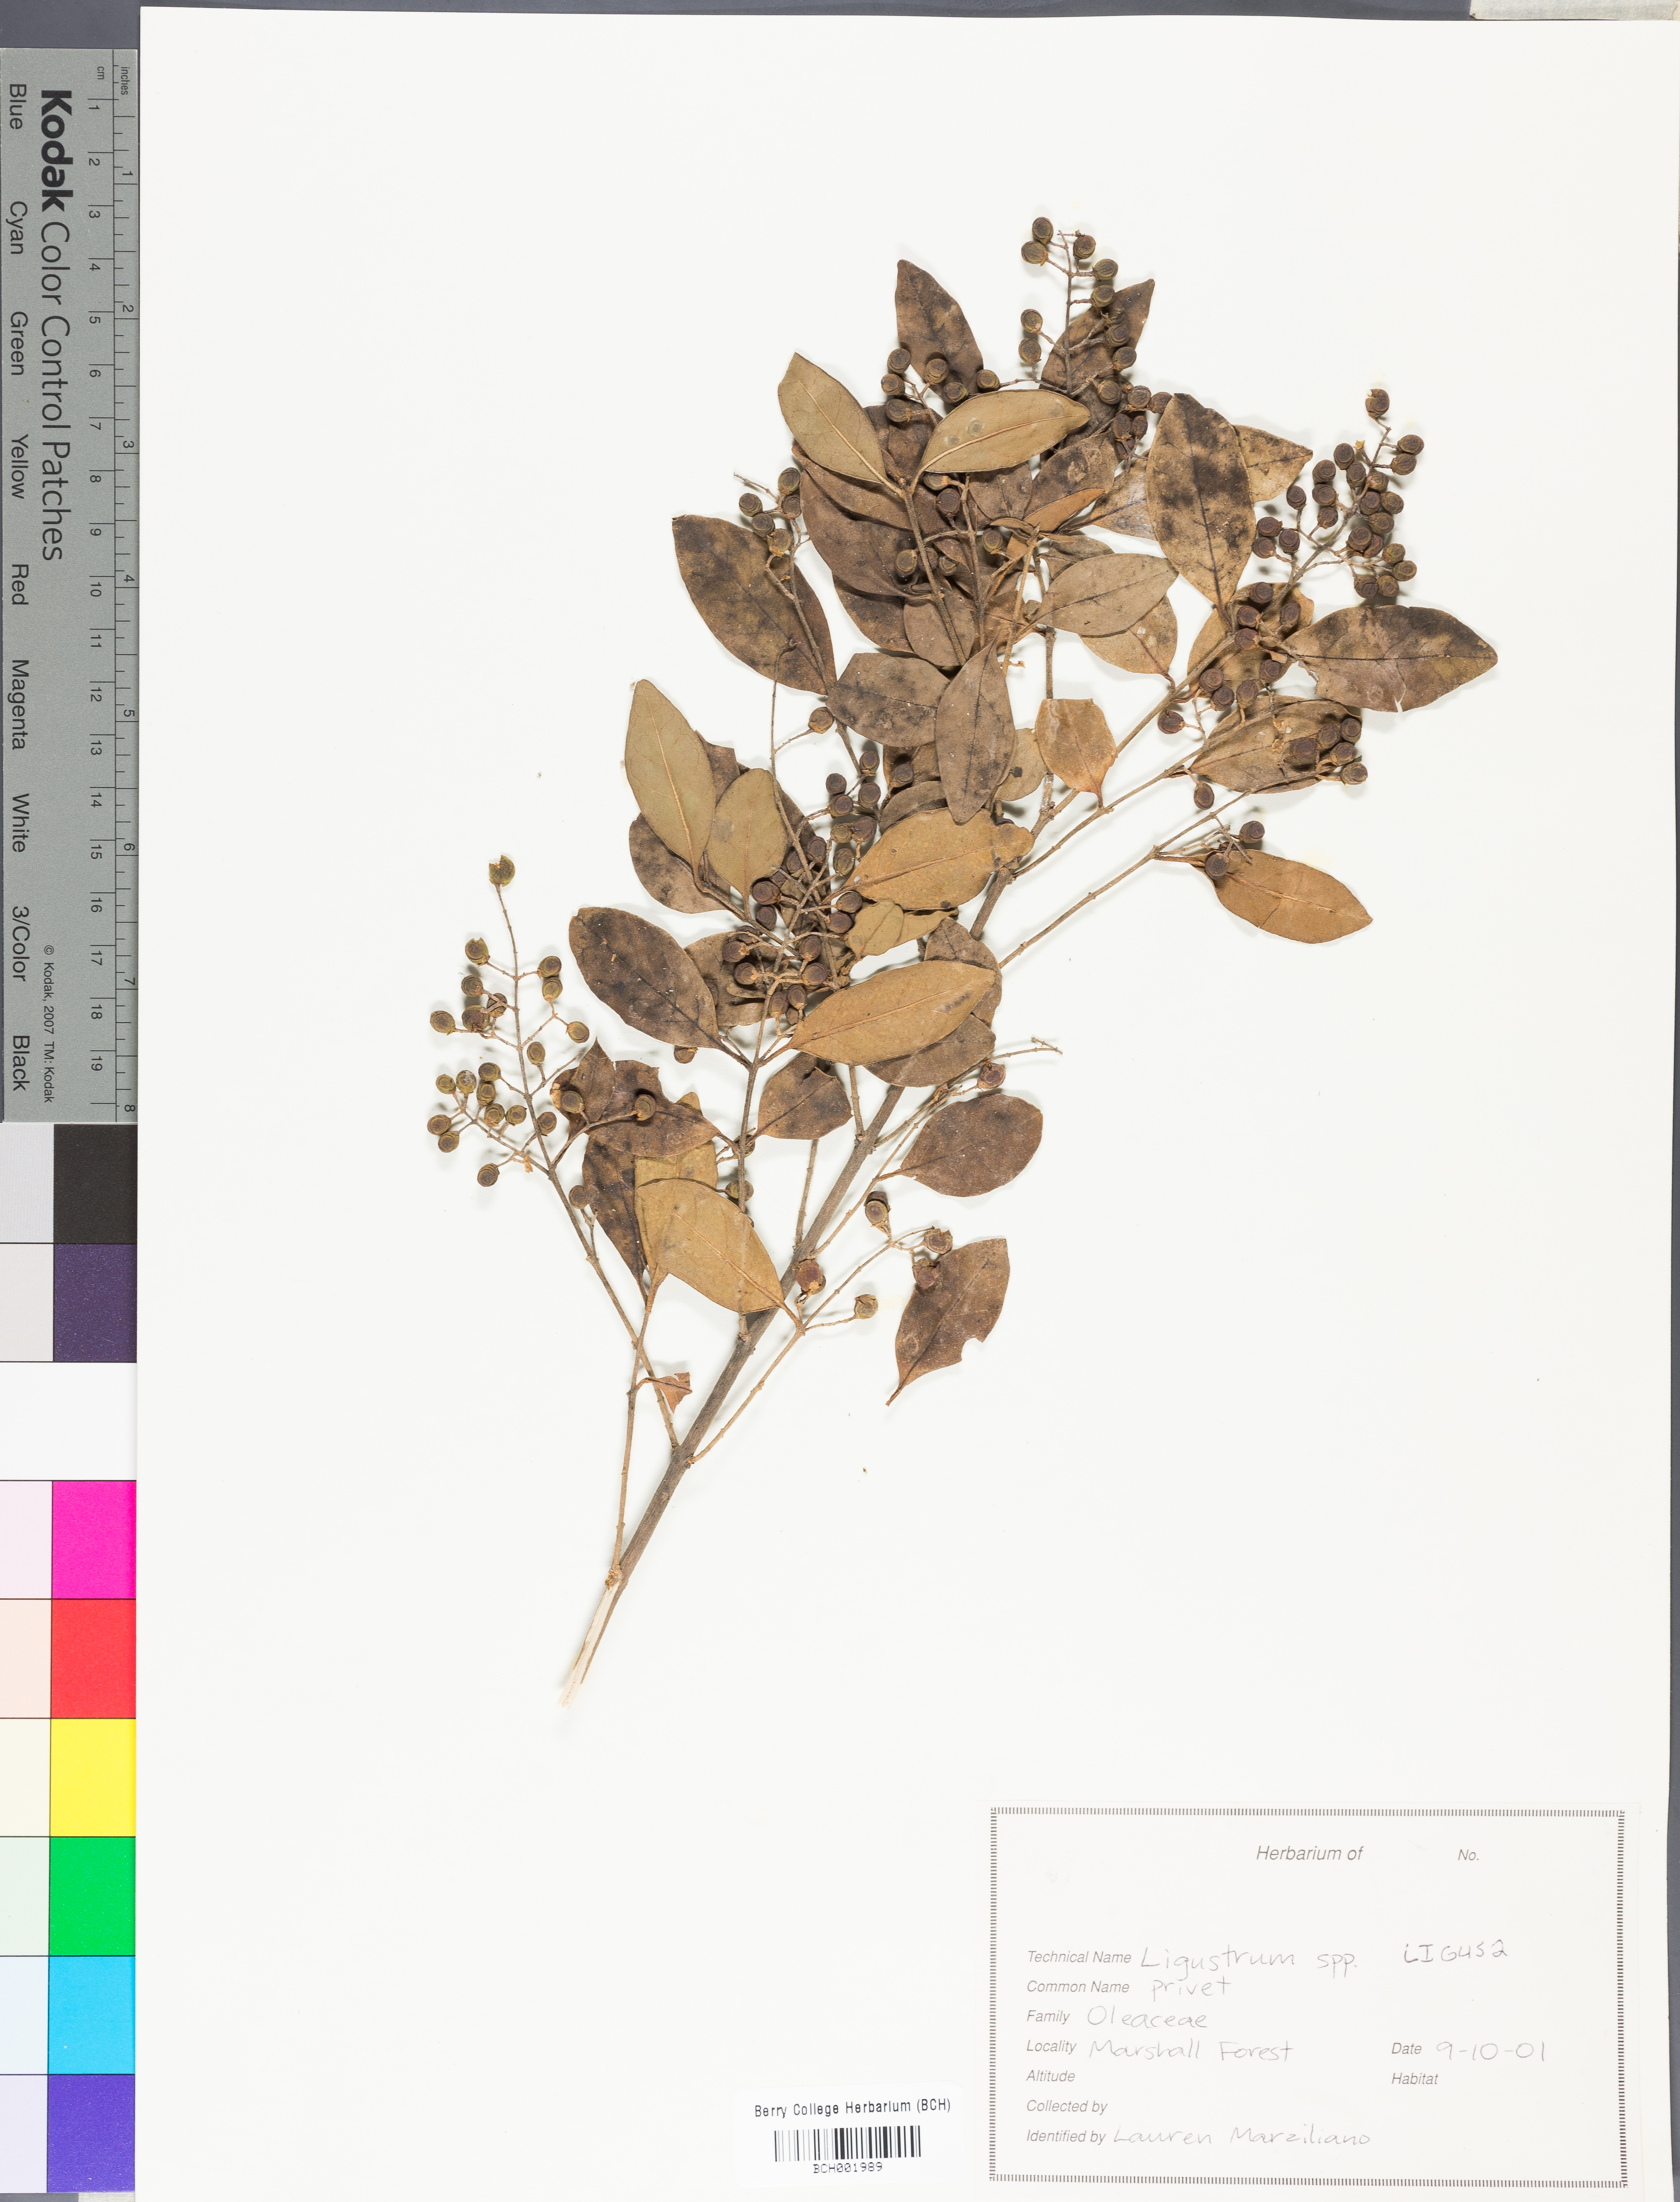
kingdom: Plantae
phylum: Tracheophyta
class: Magnoliopsida
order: Lamiales
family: Oleaceae
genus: Ligustrum
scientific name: Ligustrum
